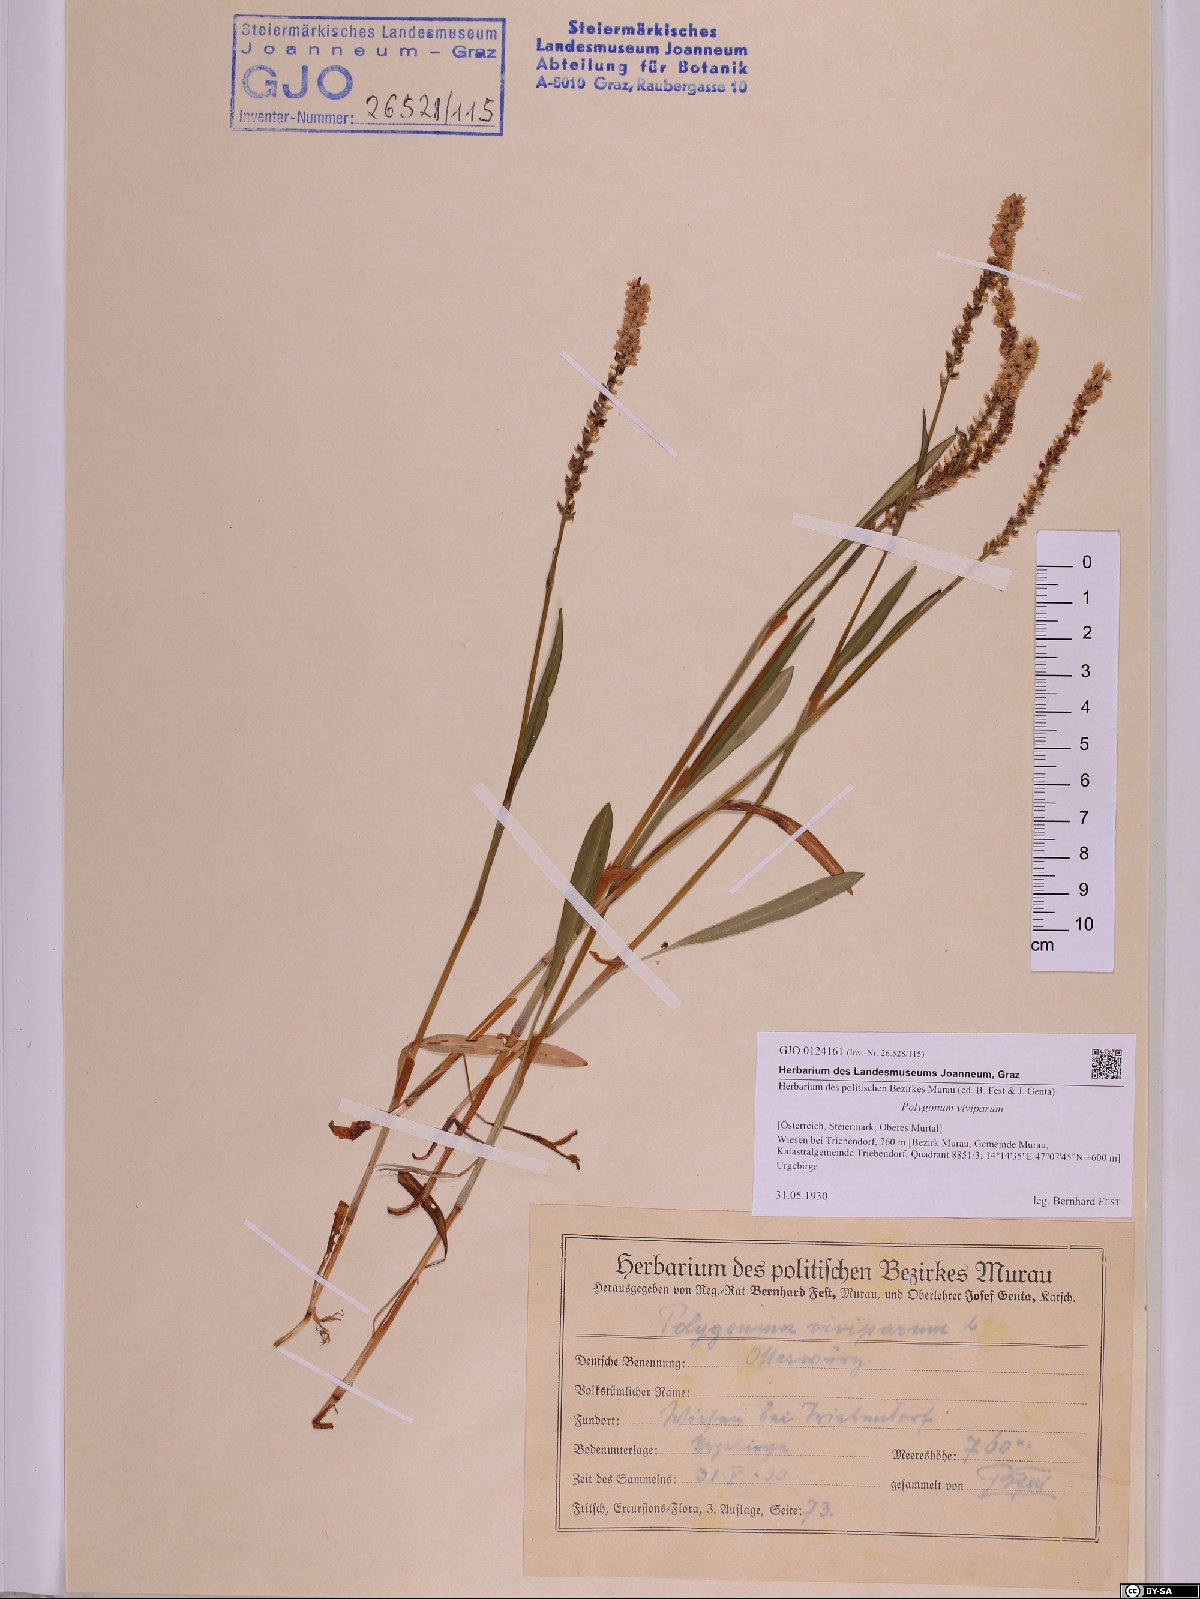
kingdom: Plantae
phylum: Tracheophyta
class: Magnoliopsida
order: Caryophyllales
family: Polygonaceae
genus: Bistorta
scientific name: Bistorta vivipara
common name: Alpine bistort
